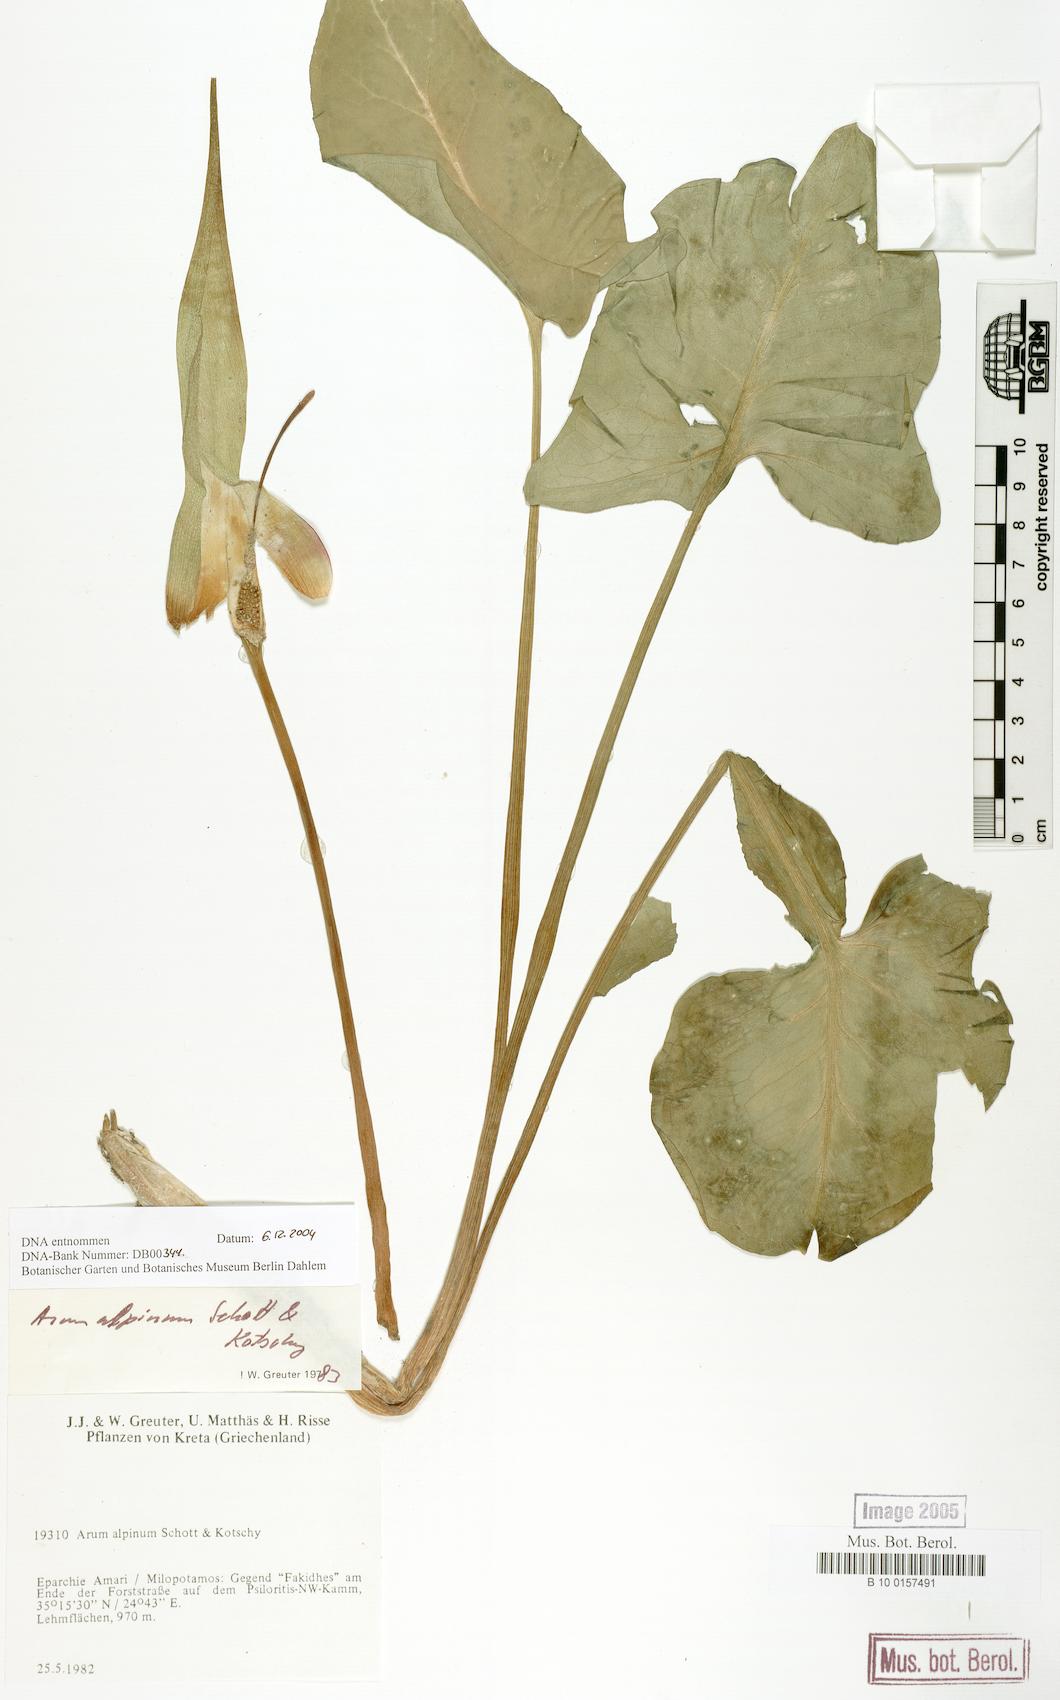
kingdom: Plantae
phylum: Tracheophyta
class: Liliopsida
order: Alismatales
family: Araceae
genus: Arum
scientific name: Arum cylindraceum
